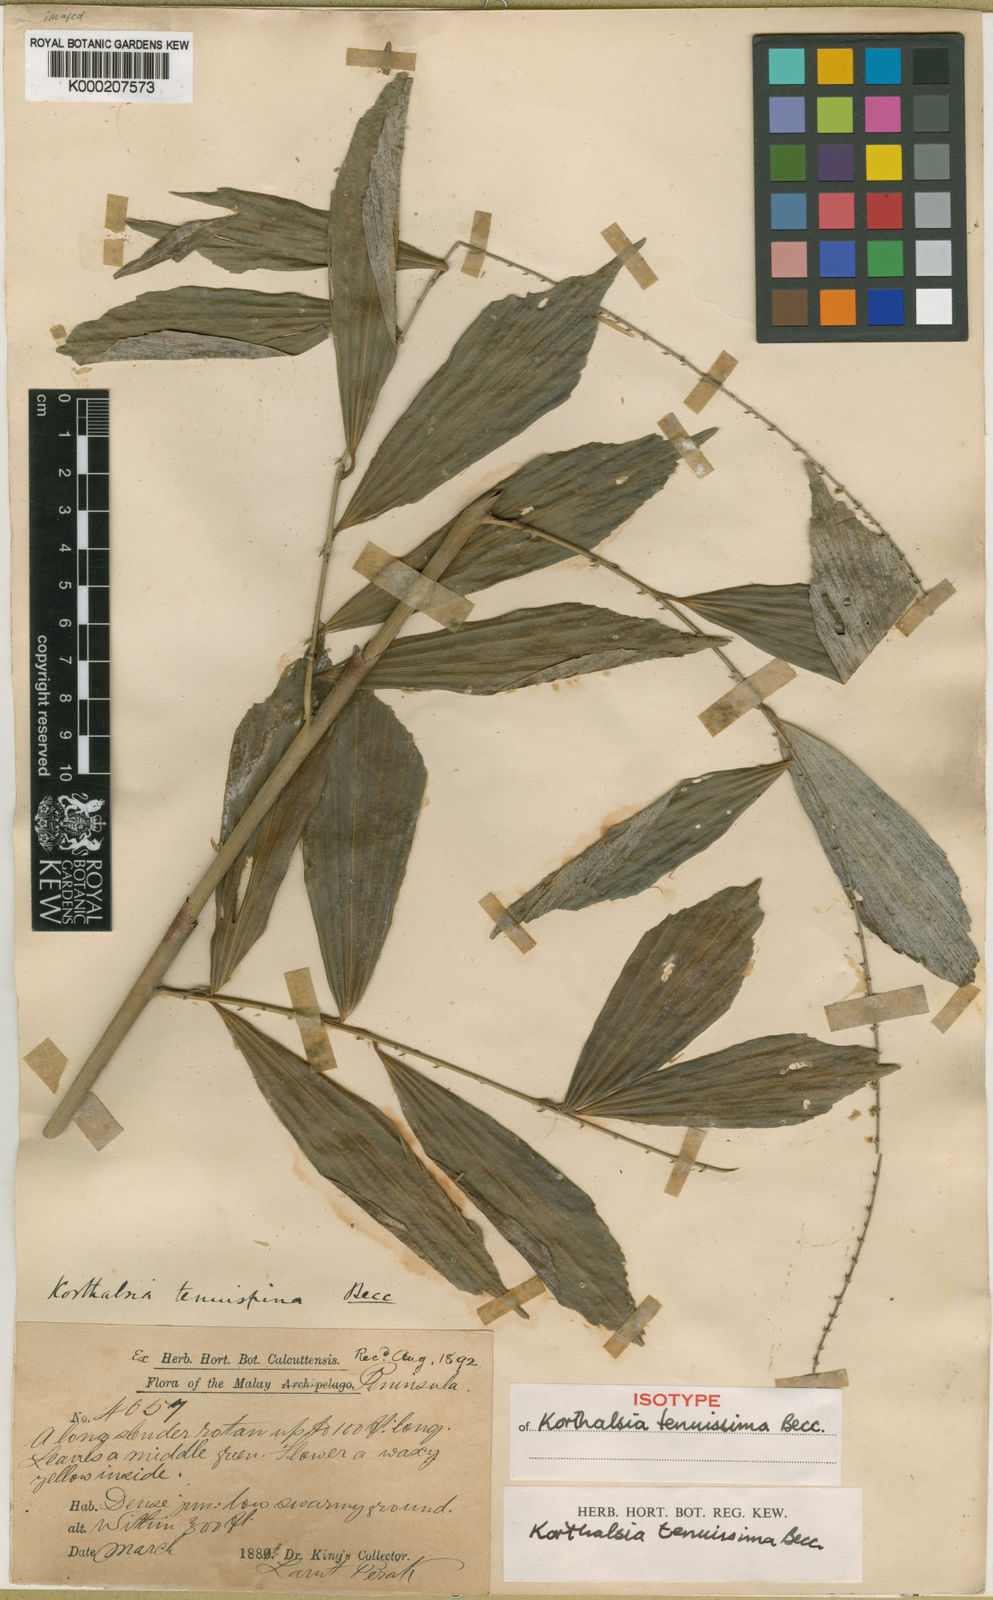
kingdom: Plantae
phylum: Tracheophyta
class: Liliopsida
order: Arecales
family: Arecaceae
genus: Korthalsia
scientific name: Korthalsia tenuissima
